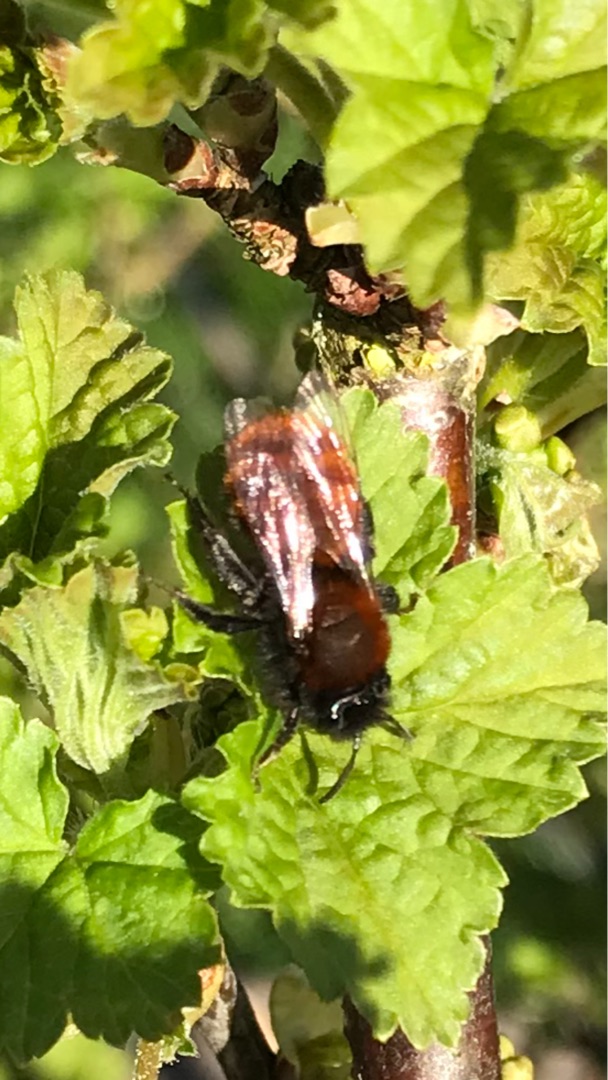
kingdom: Animalia
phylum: Arthropoda
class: Insecta
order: Hymenoptera
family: Andrenidae
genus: Andrena
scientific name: Andrena fulva
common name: Rødpelset jordbi
